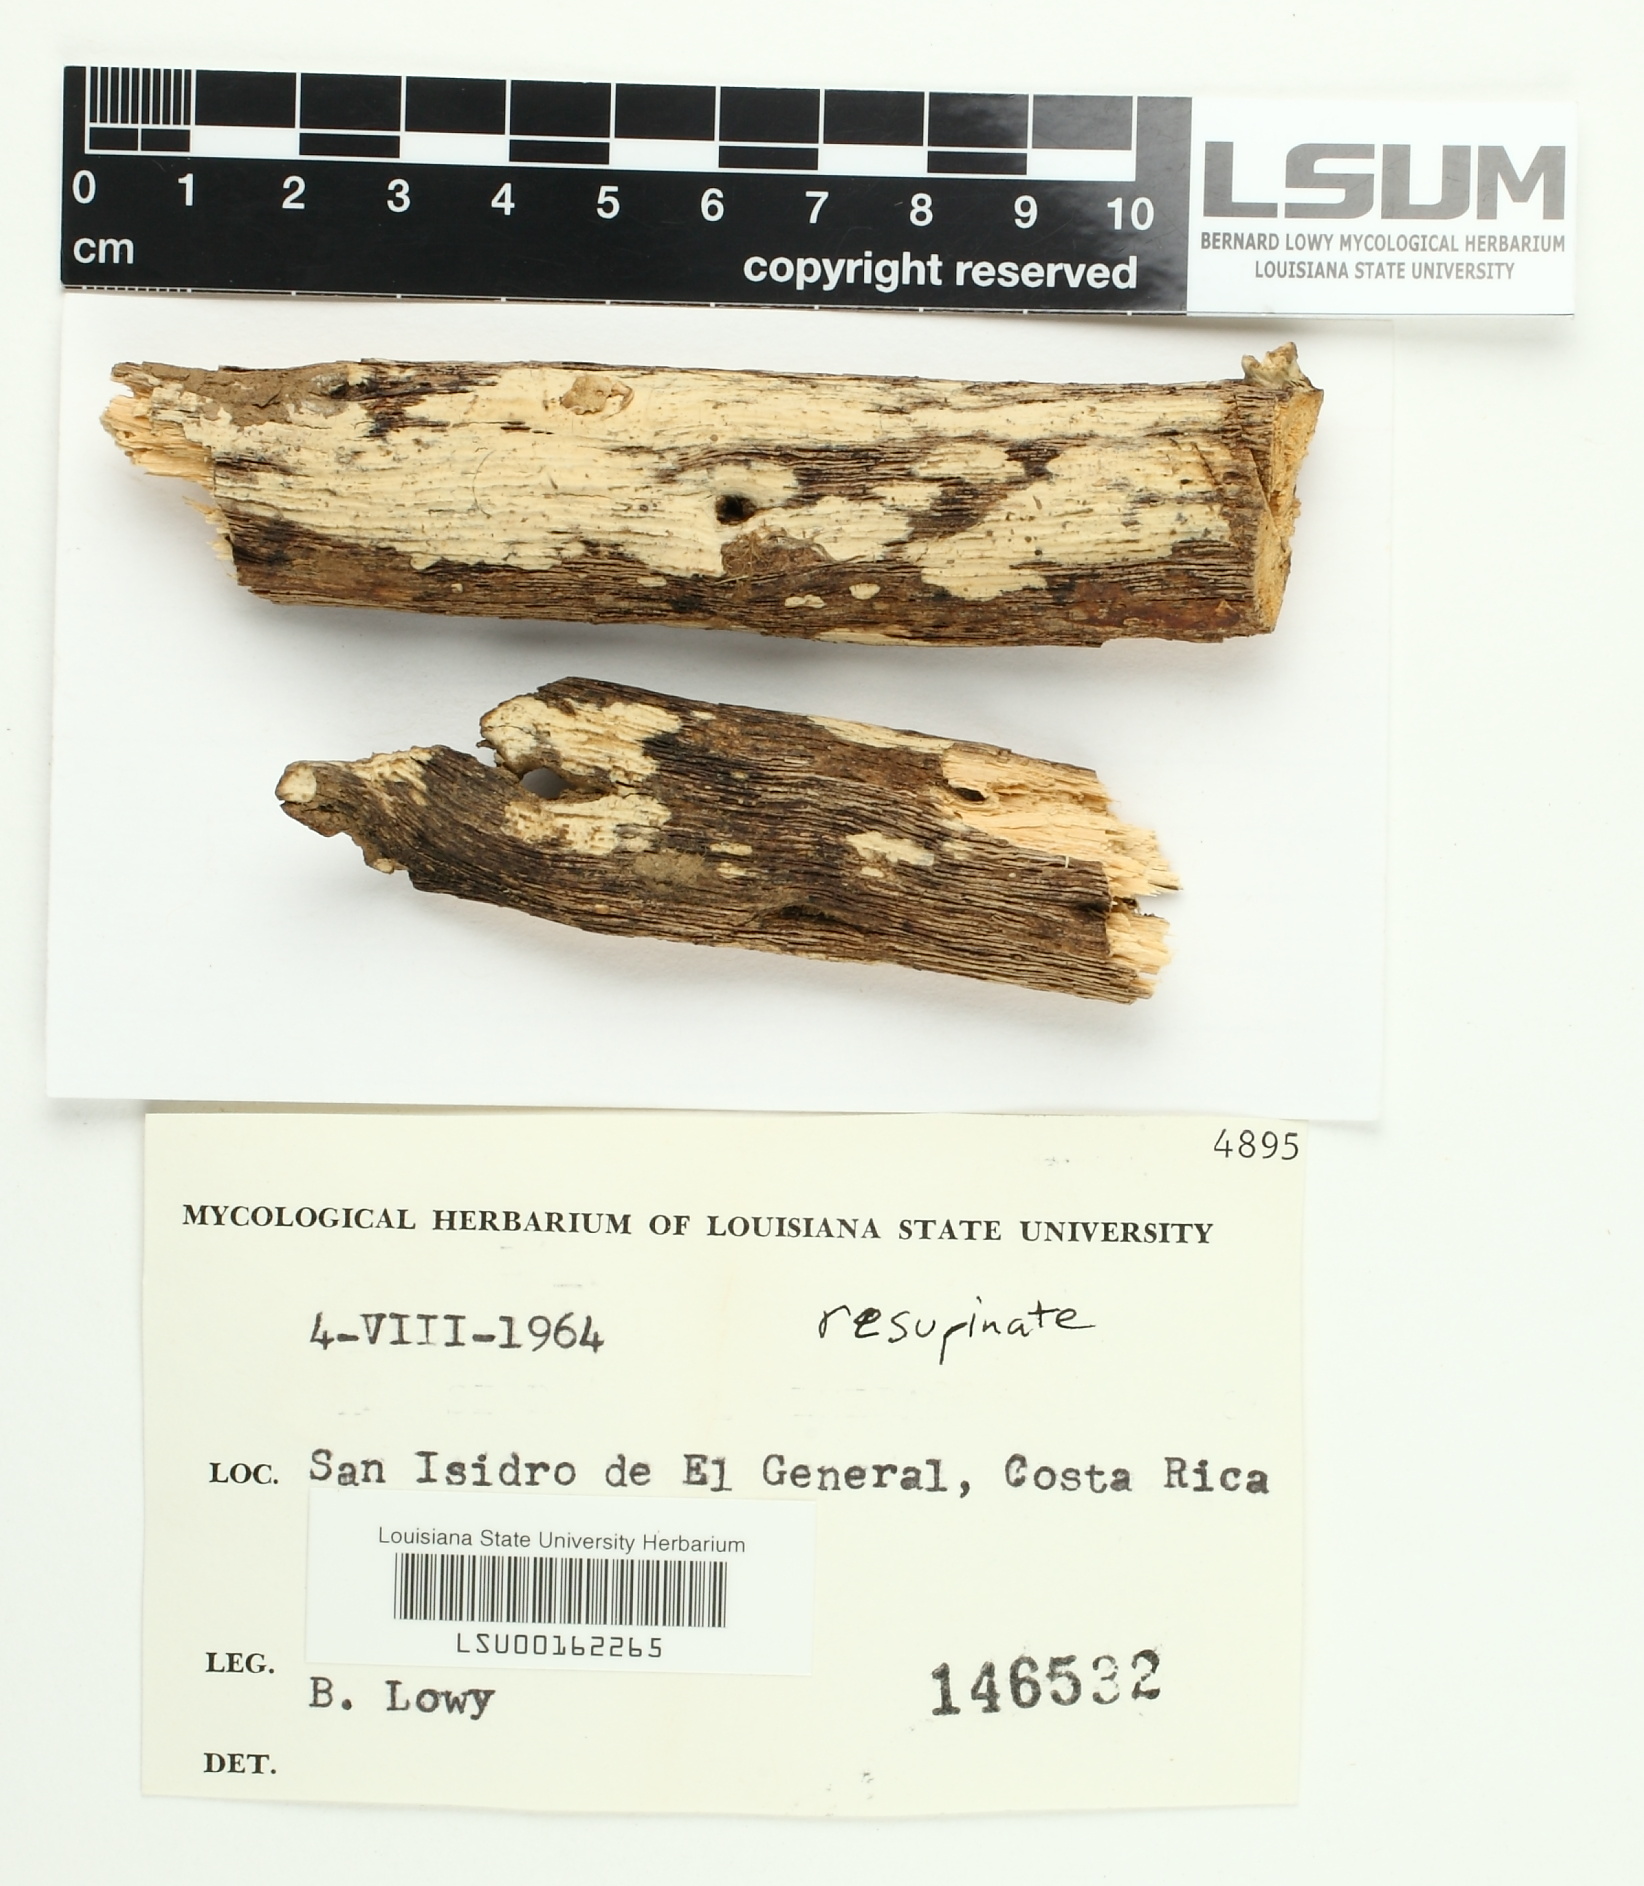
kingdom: Fungi
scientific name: Fungi
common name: Fungi
